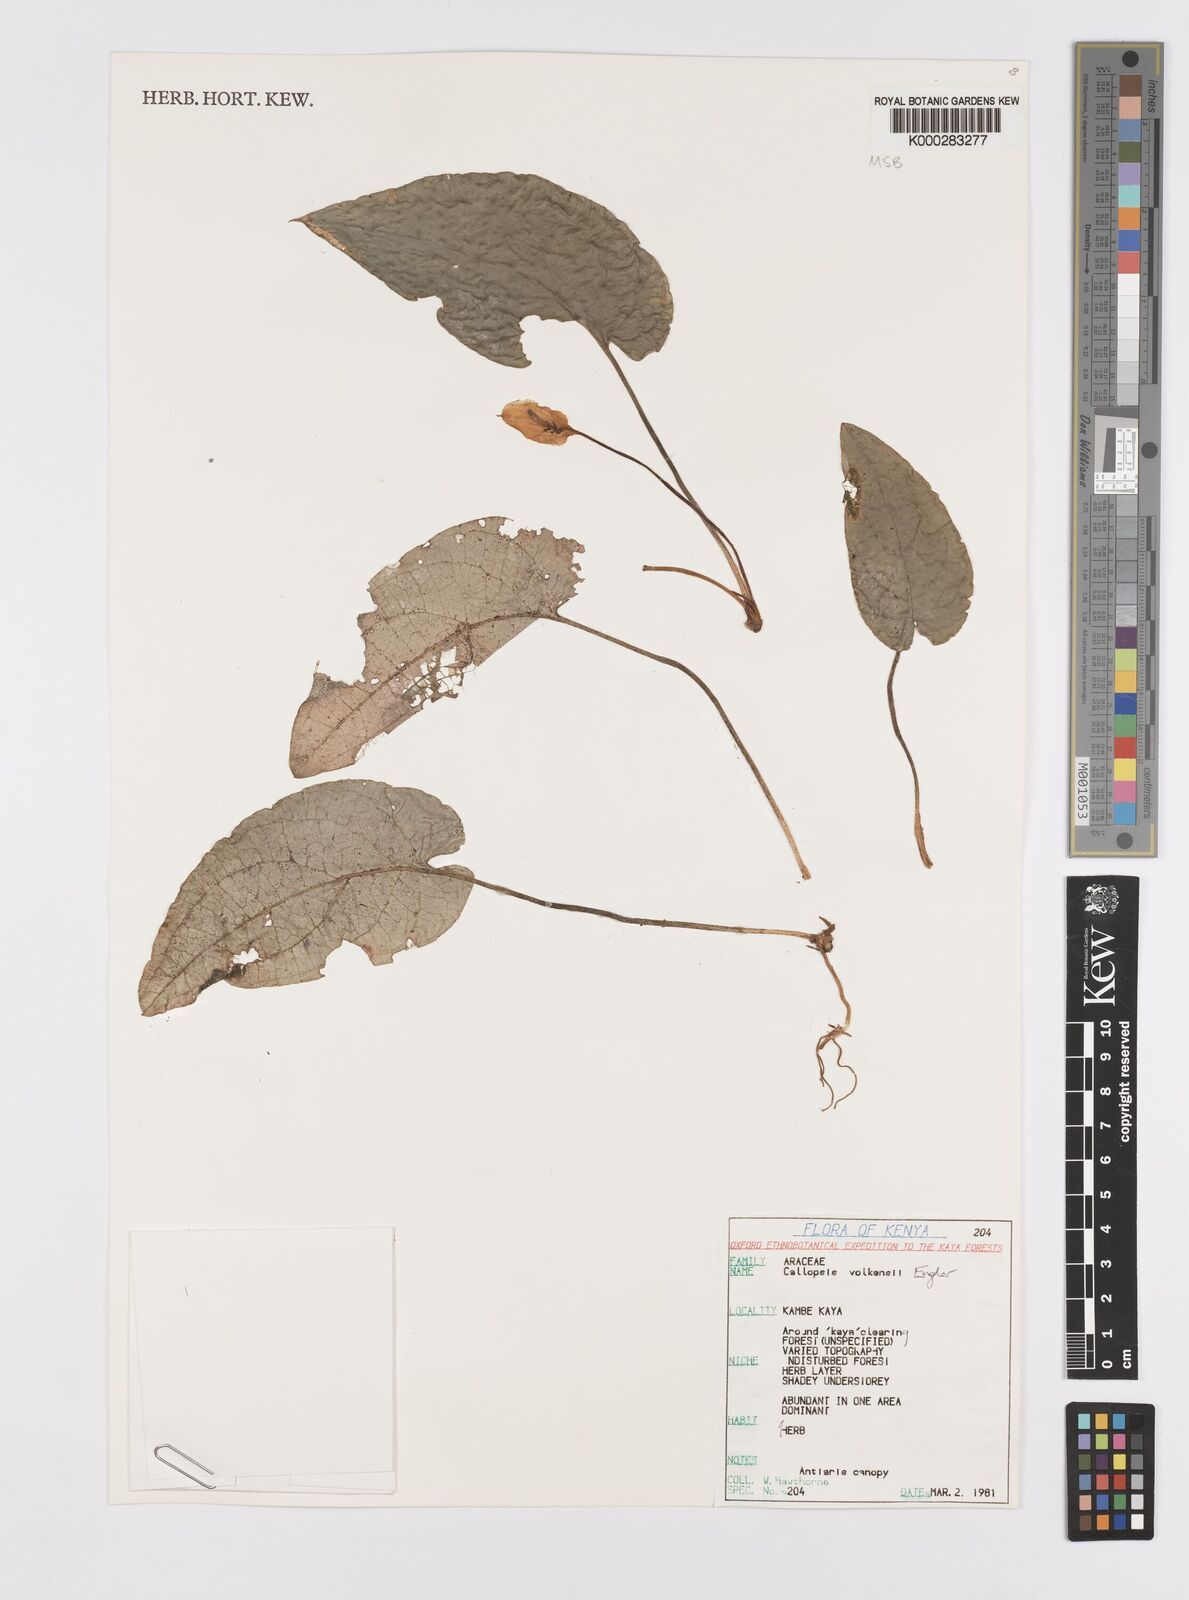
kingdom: Plantae
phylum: Tracheophyta
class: Liliopsida
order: Alismatales
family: Araceae
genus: Callopsis
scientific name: Callopsis volkensii
